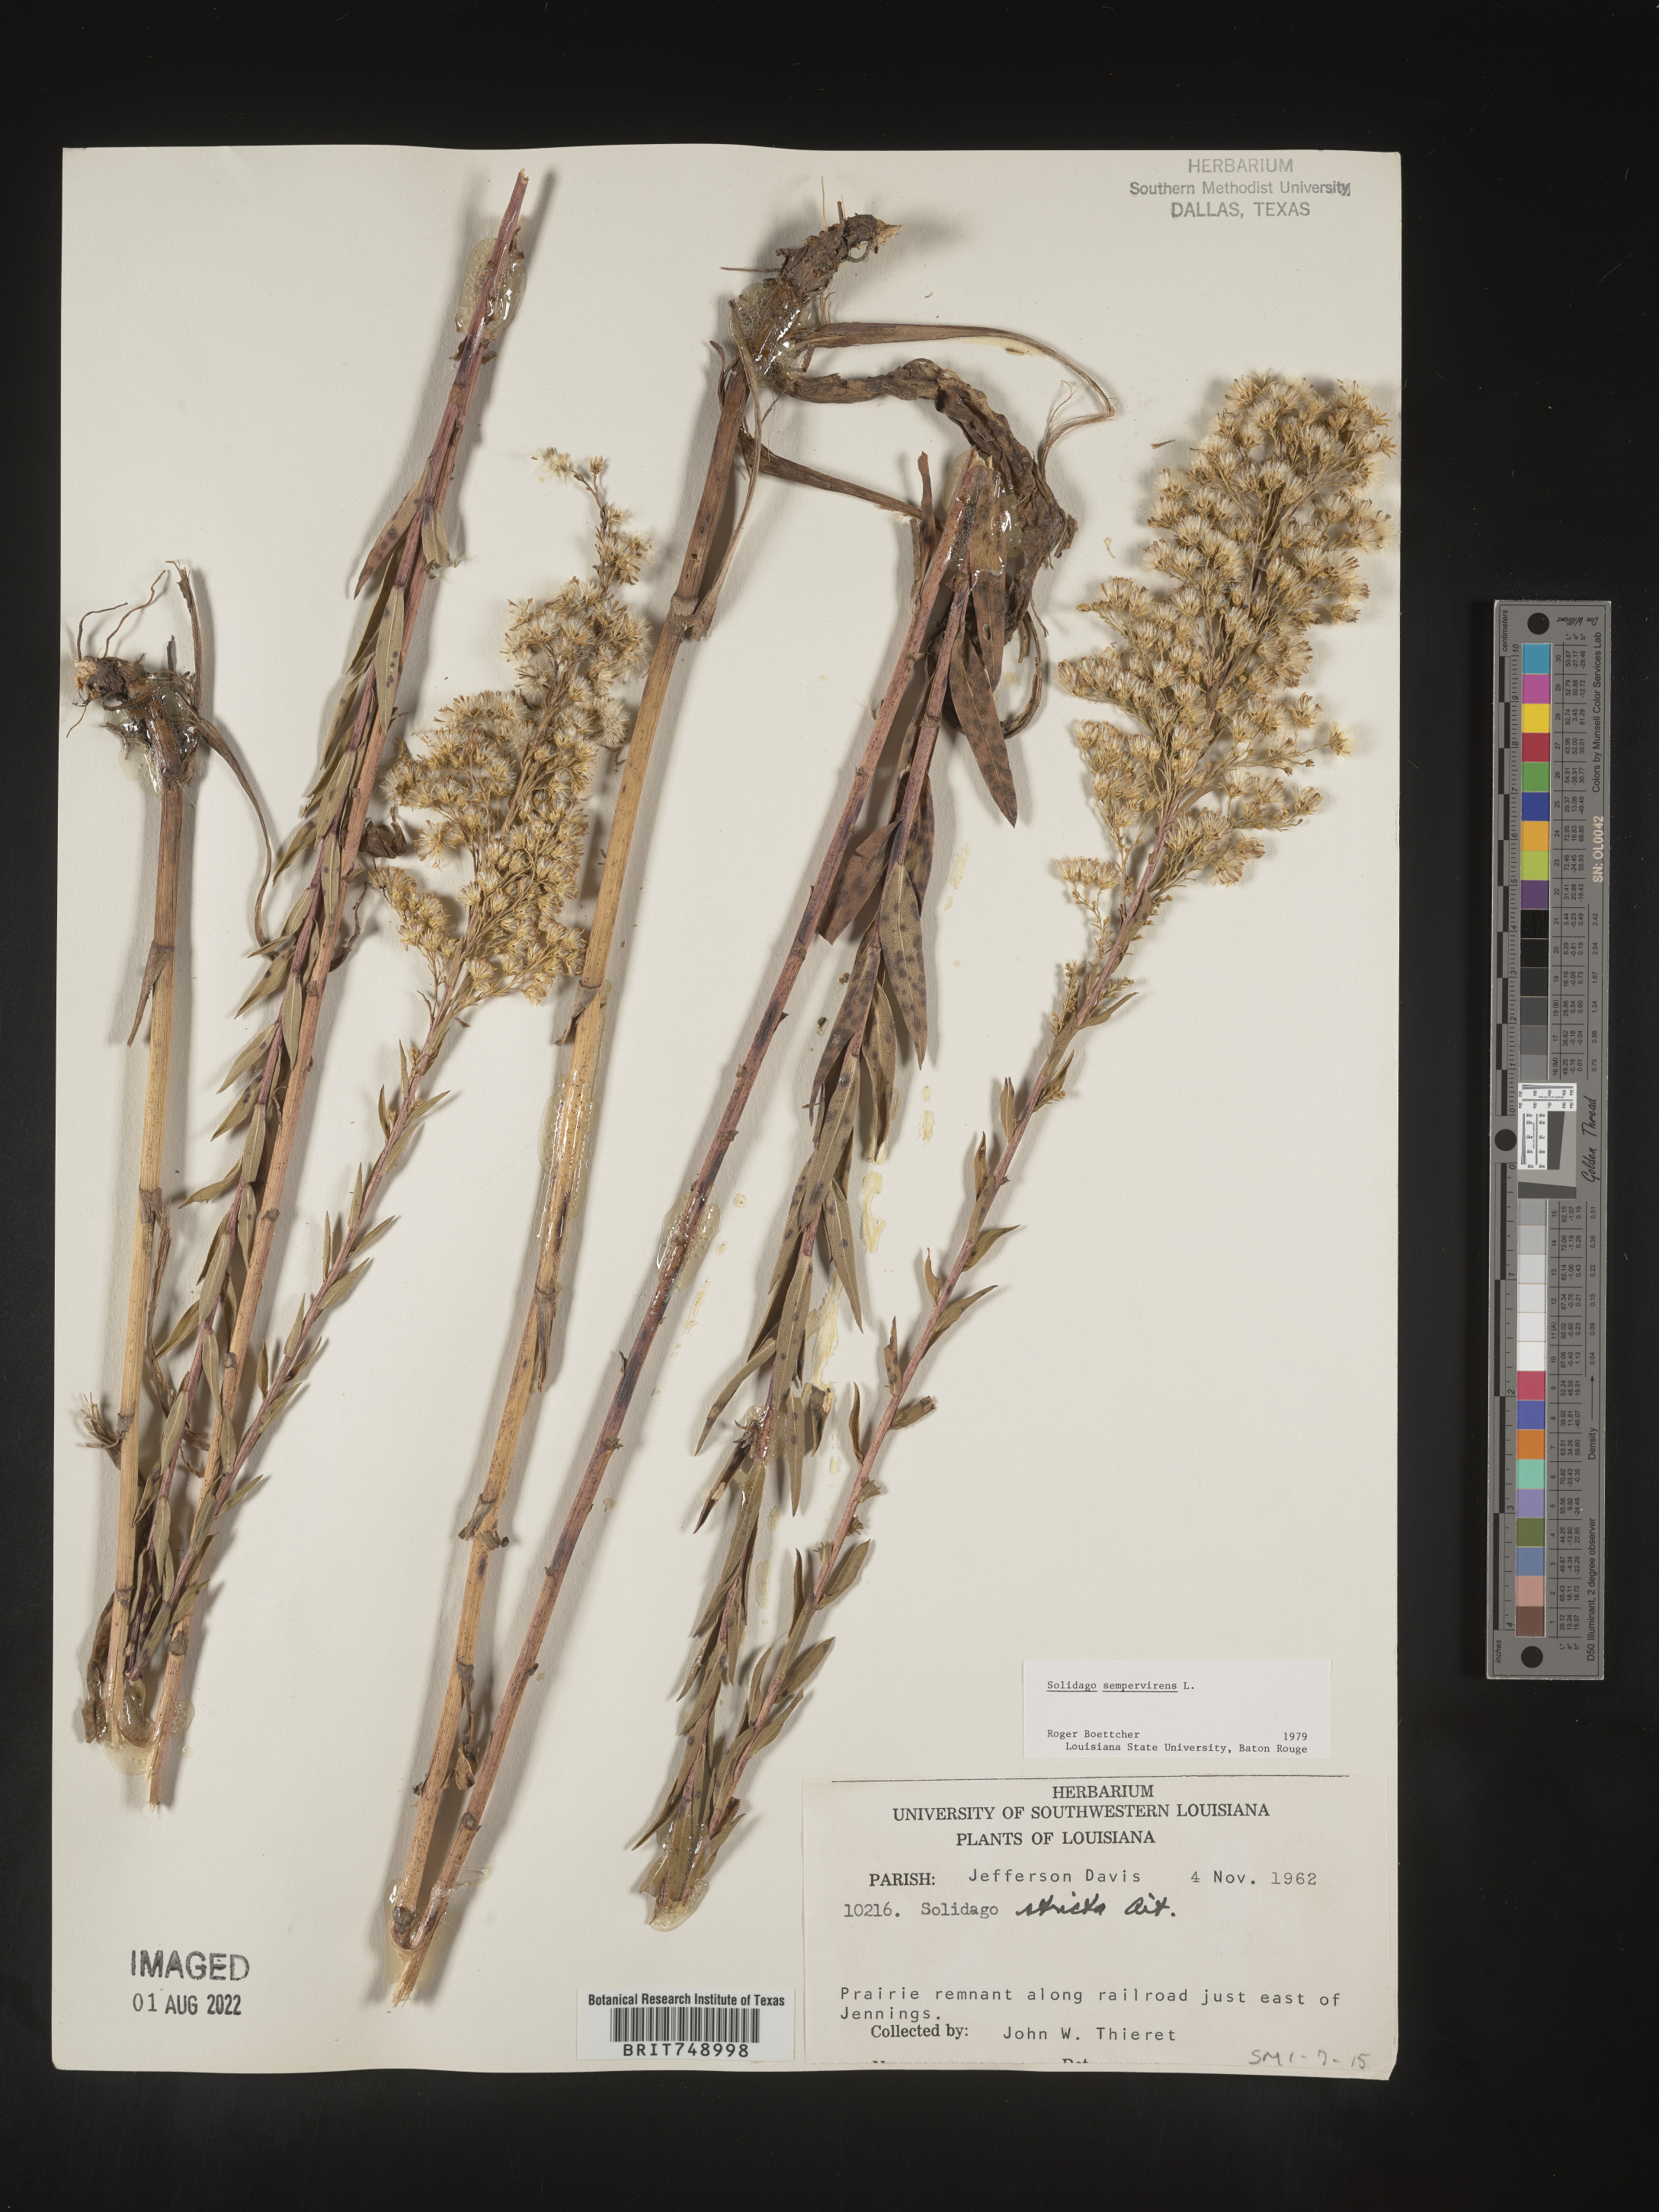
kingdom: Plantae
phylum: Tracheophyta
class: Magnoliopsida
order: Asterales
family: Asteraceae
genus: Solidago
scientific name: Solidago sempervirens
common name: Salt-marsh goldenrod
